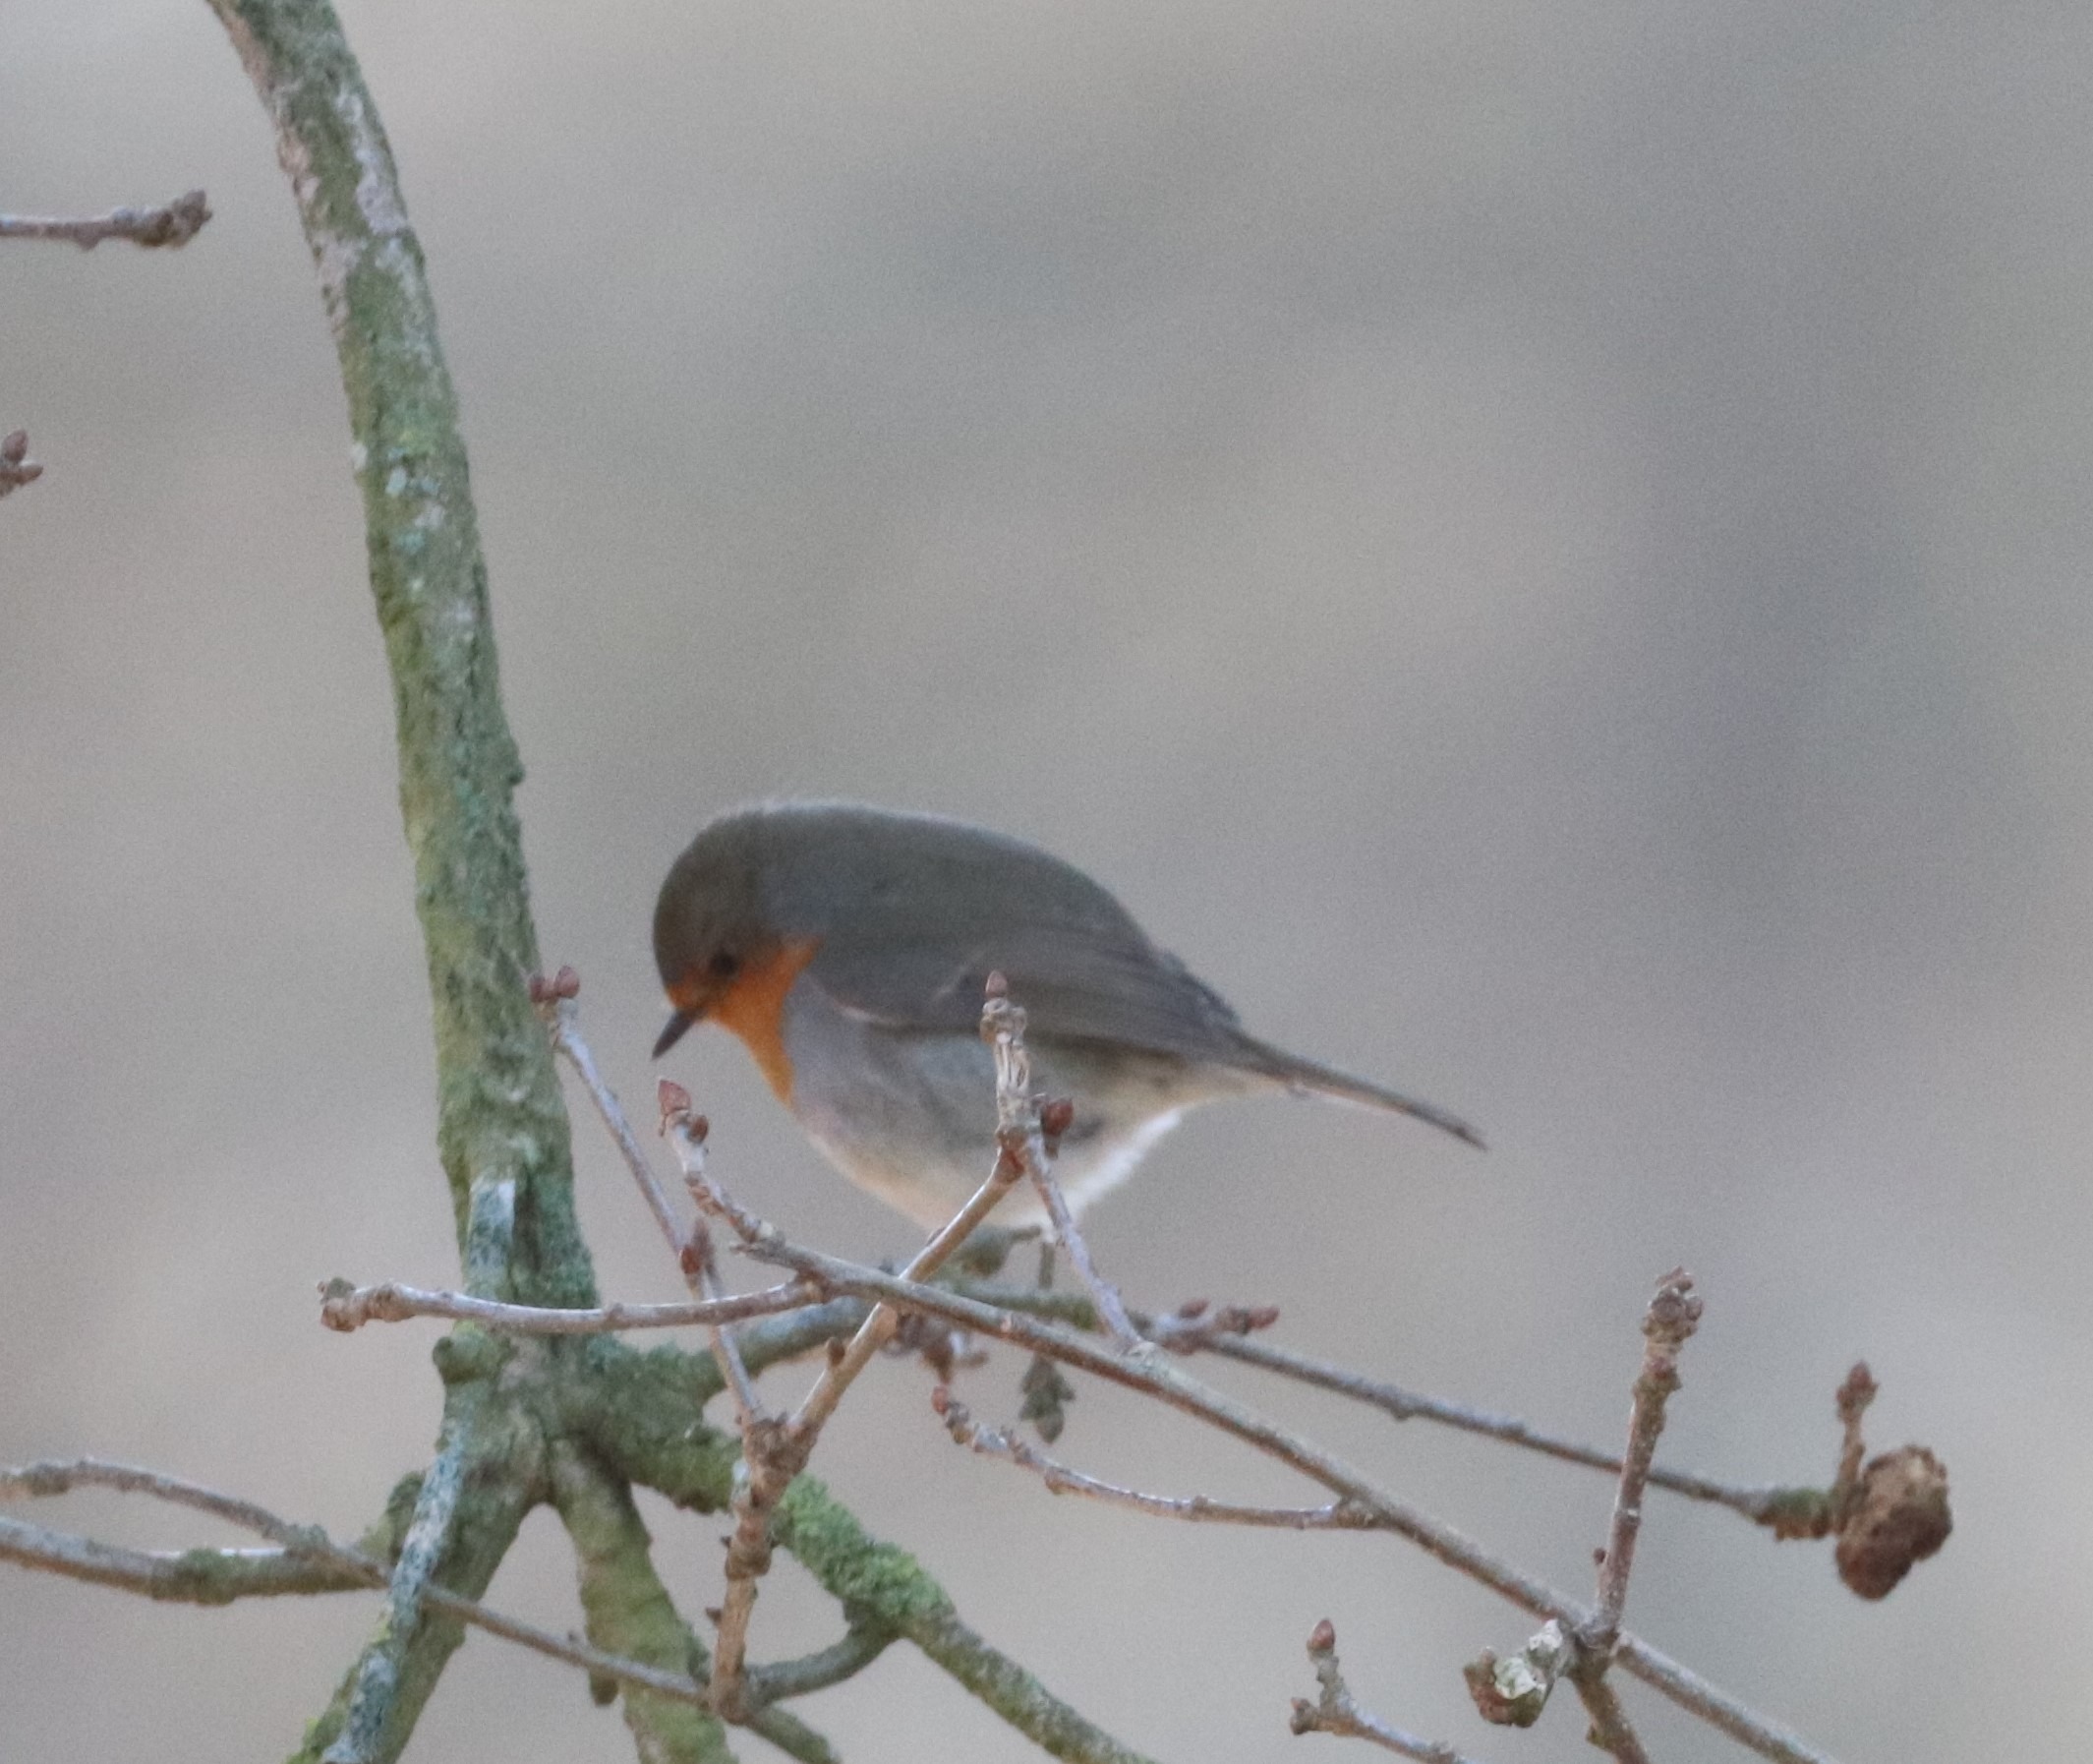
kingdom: Animalia
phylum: Chordata
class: Aves
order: Passeriformes
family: Muscicapidae
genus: Erithacus
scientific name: Erithacus rubecula
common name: Rødhals/rødkælk
